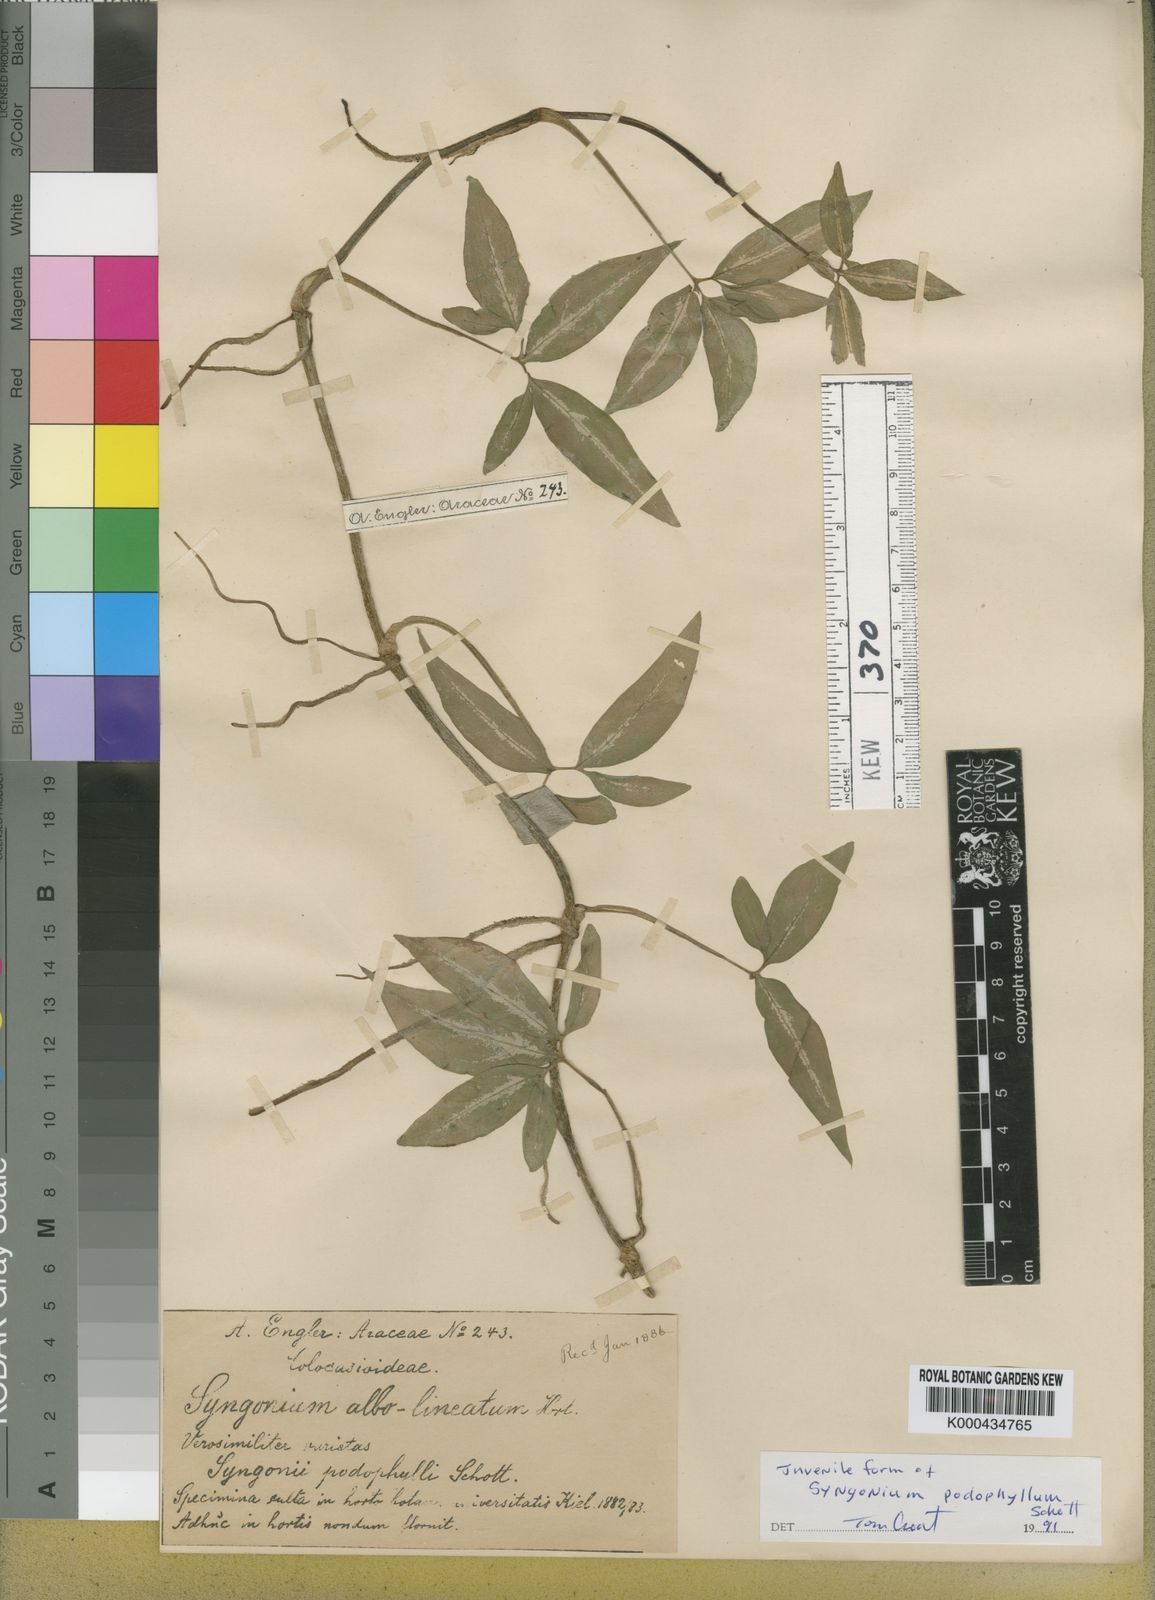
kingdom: Plantae
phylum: Tracheophyta
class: Liliopsida
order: Alismatales
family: Araceae
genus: Syngonium
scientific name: Syngonium podophyllum
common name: American evergreen
